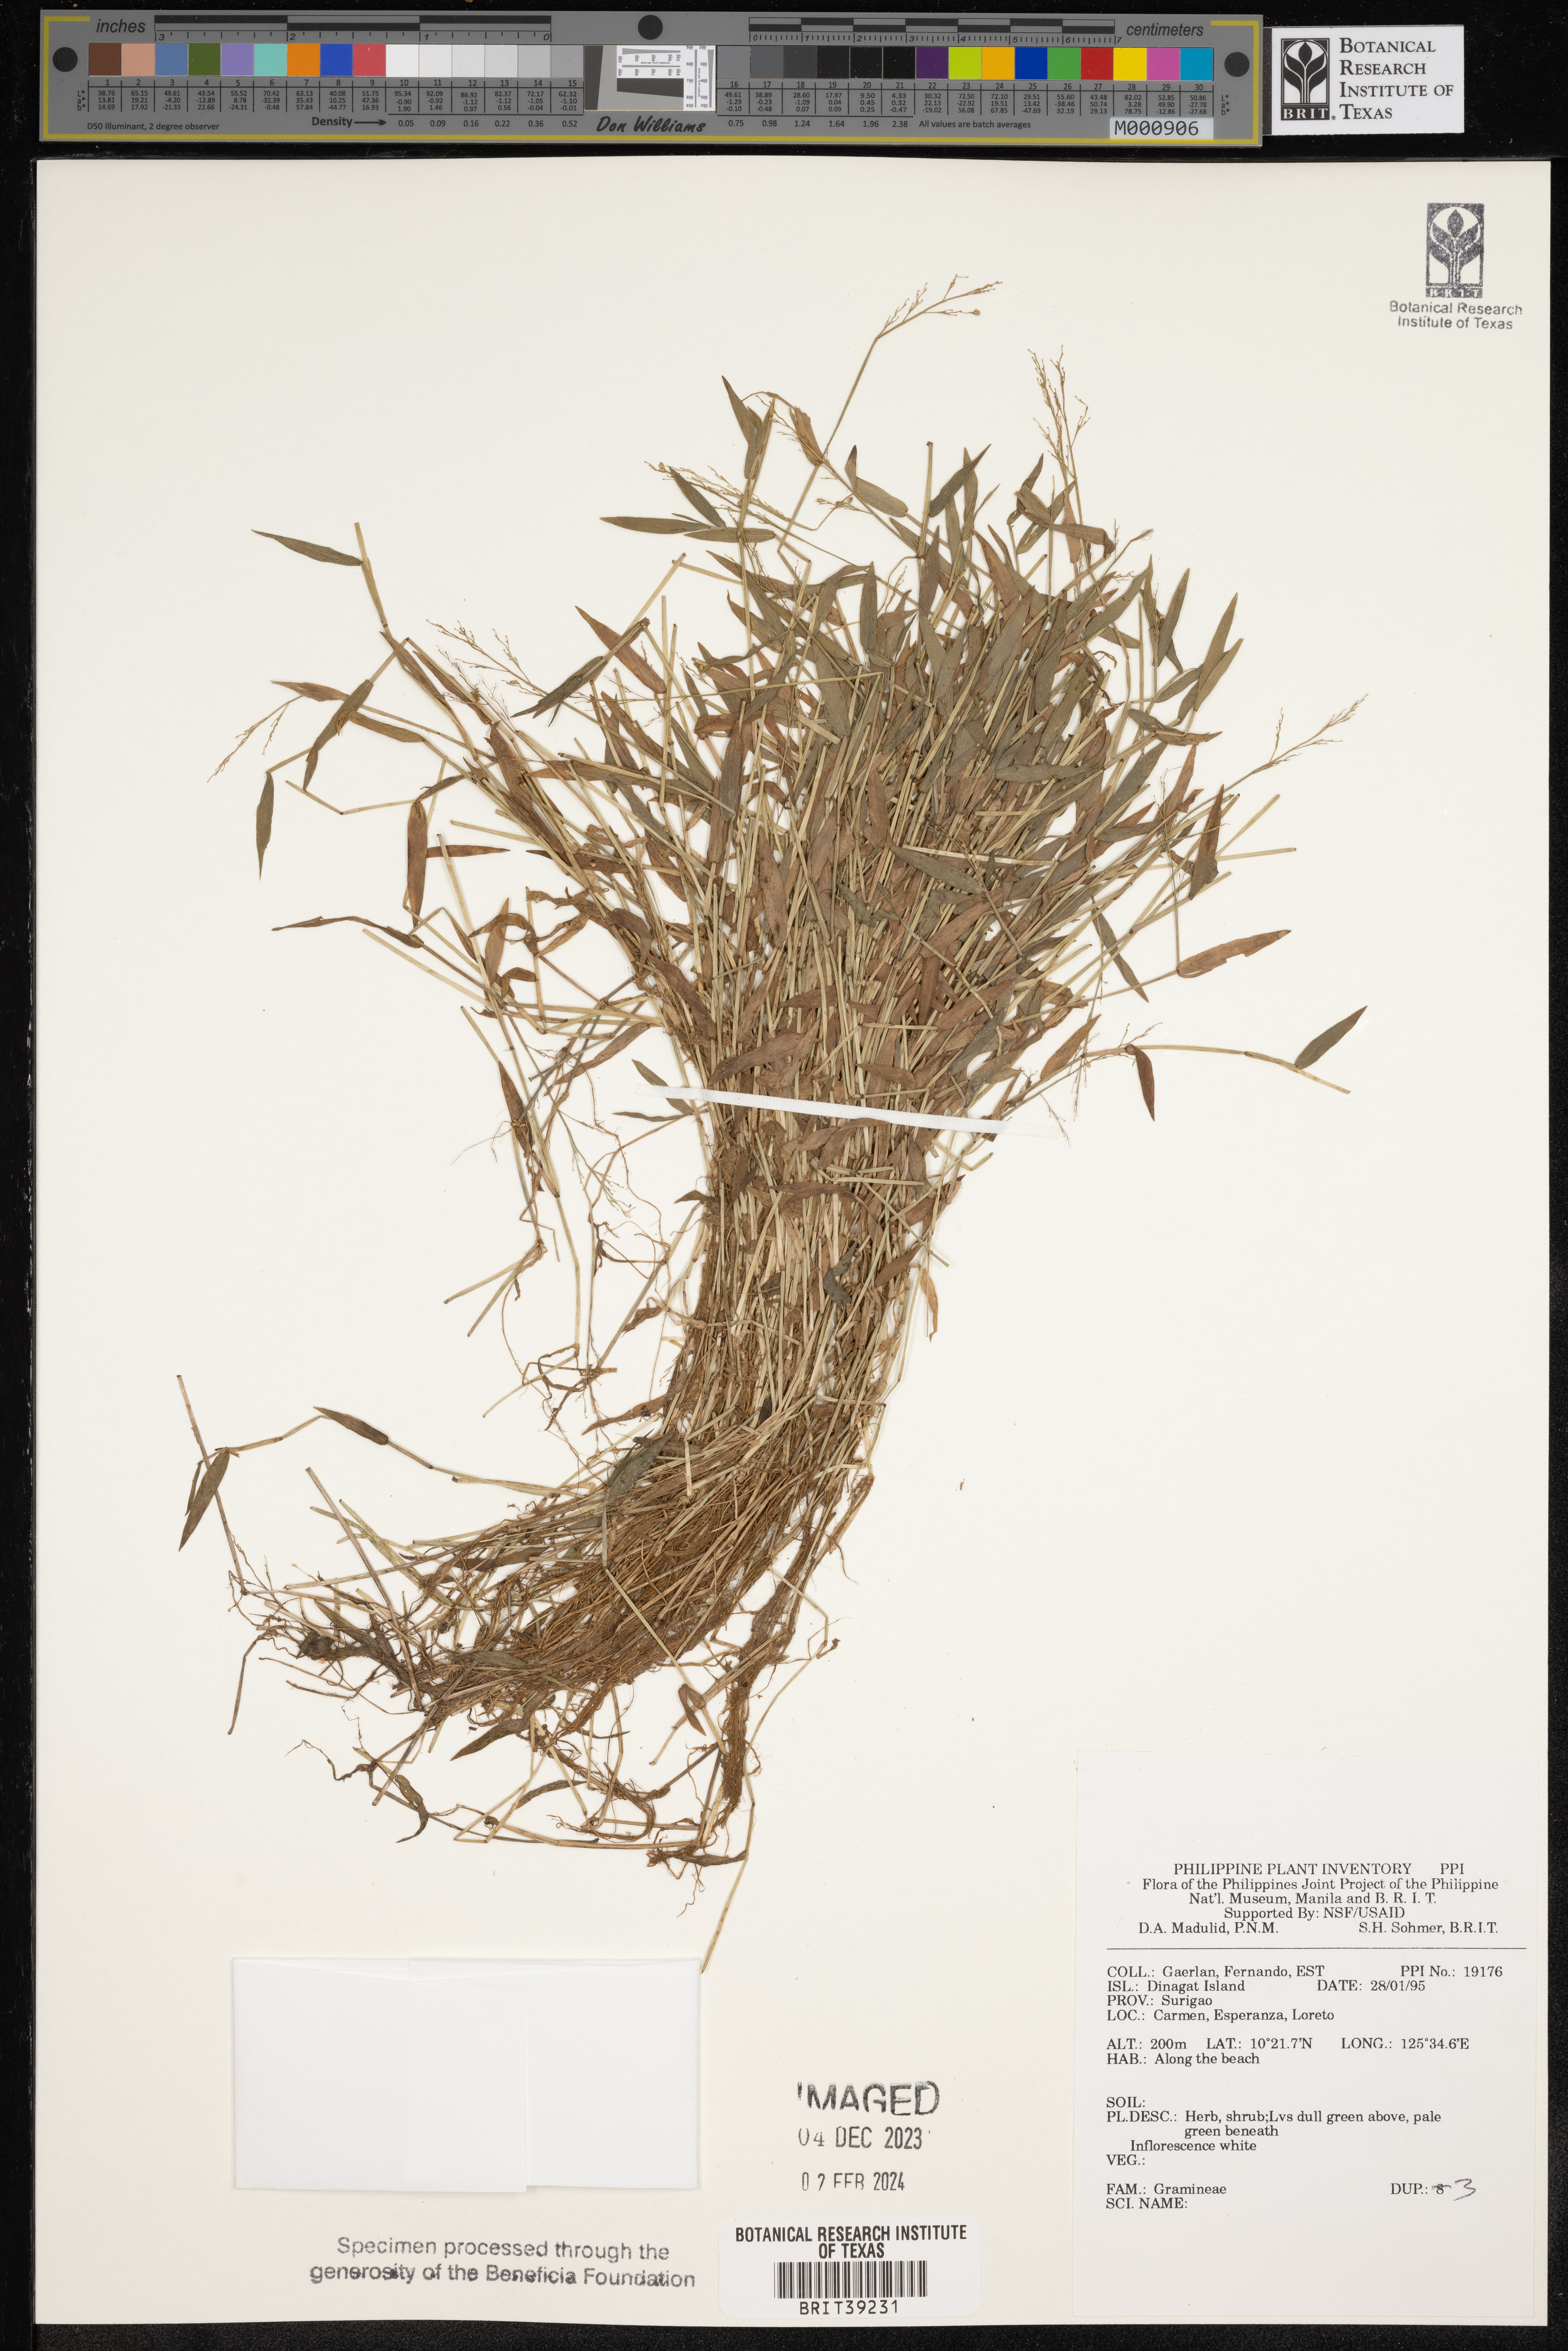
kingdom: Plantae
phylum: Tracheophyta
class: Liliopsida
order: Poales
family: Poaceae
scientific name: Poaceae
